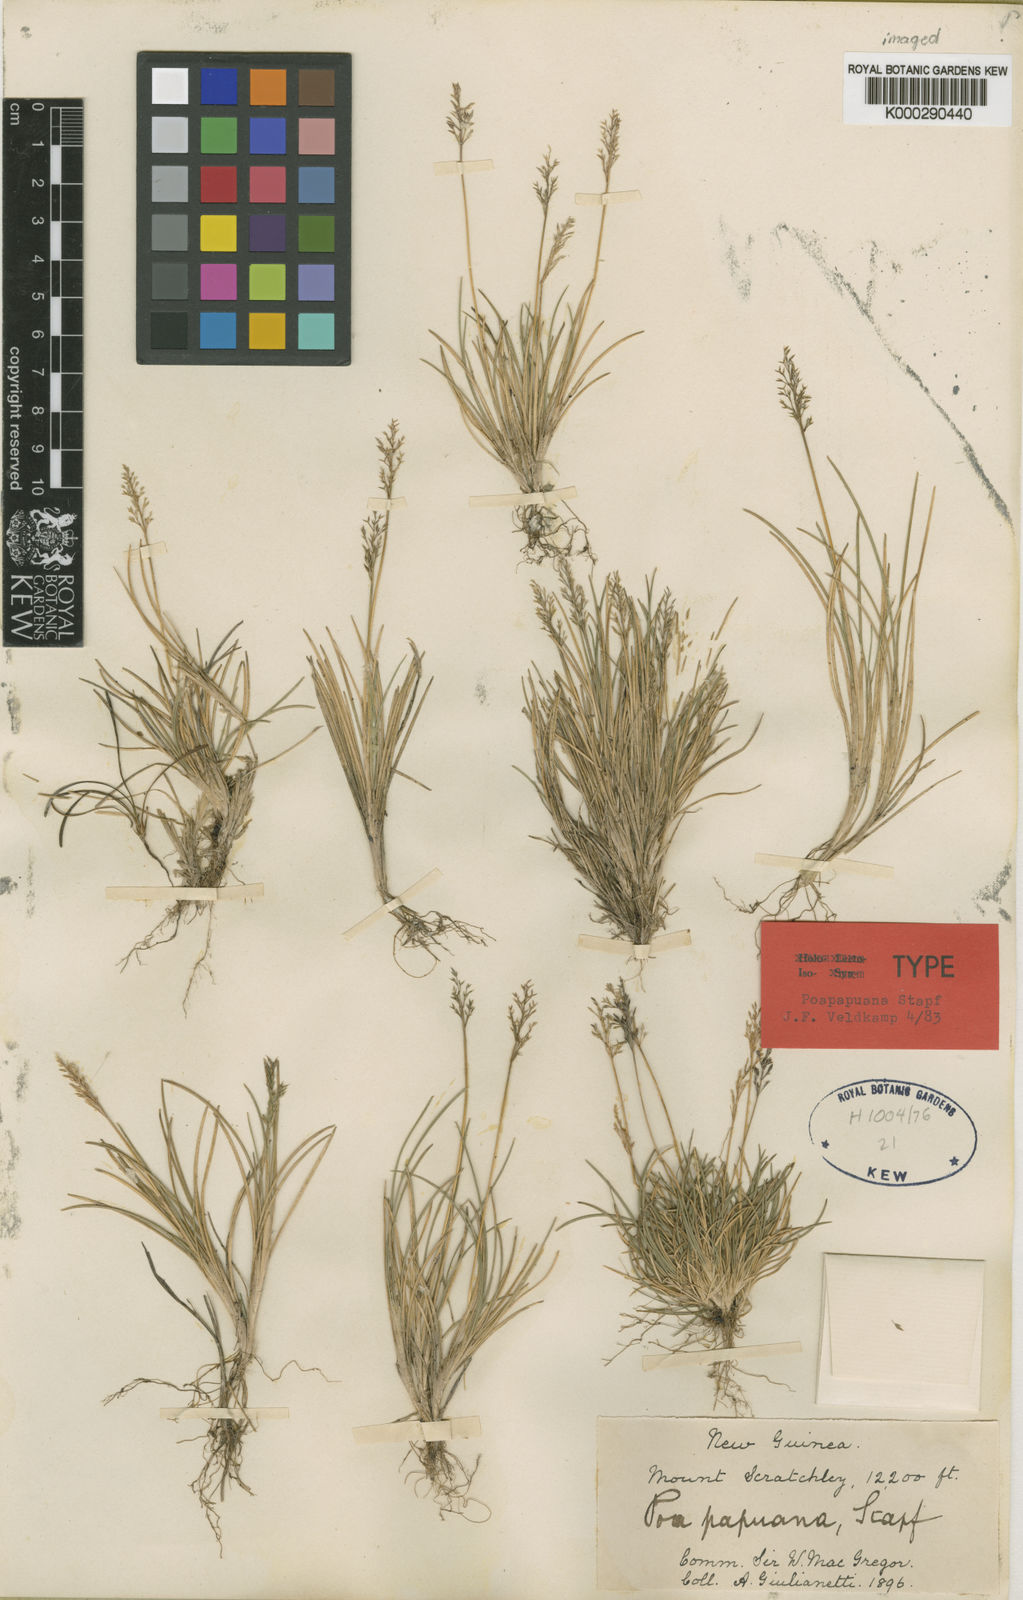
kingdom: Plantae
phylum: Tracheophyta
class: Liliopsida
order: Poales
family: Poaceae
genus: Poa
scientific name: Poa papuana
